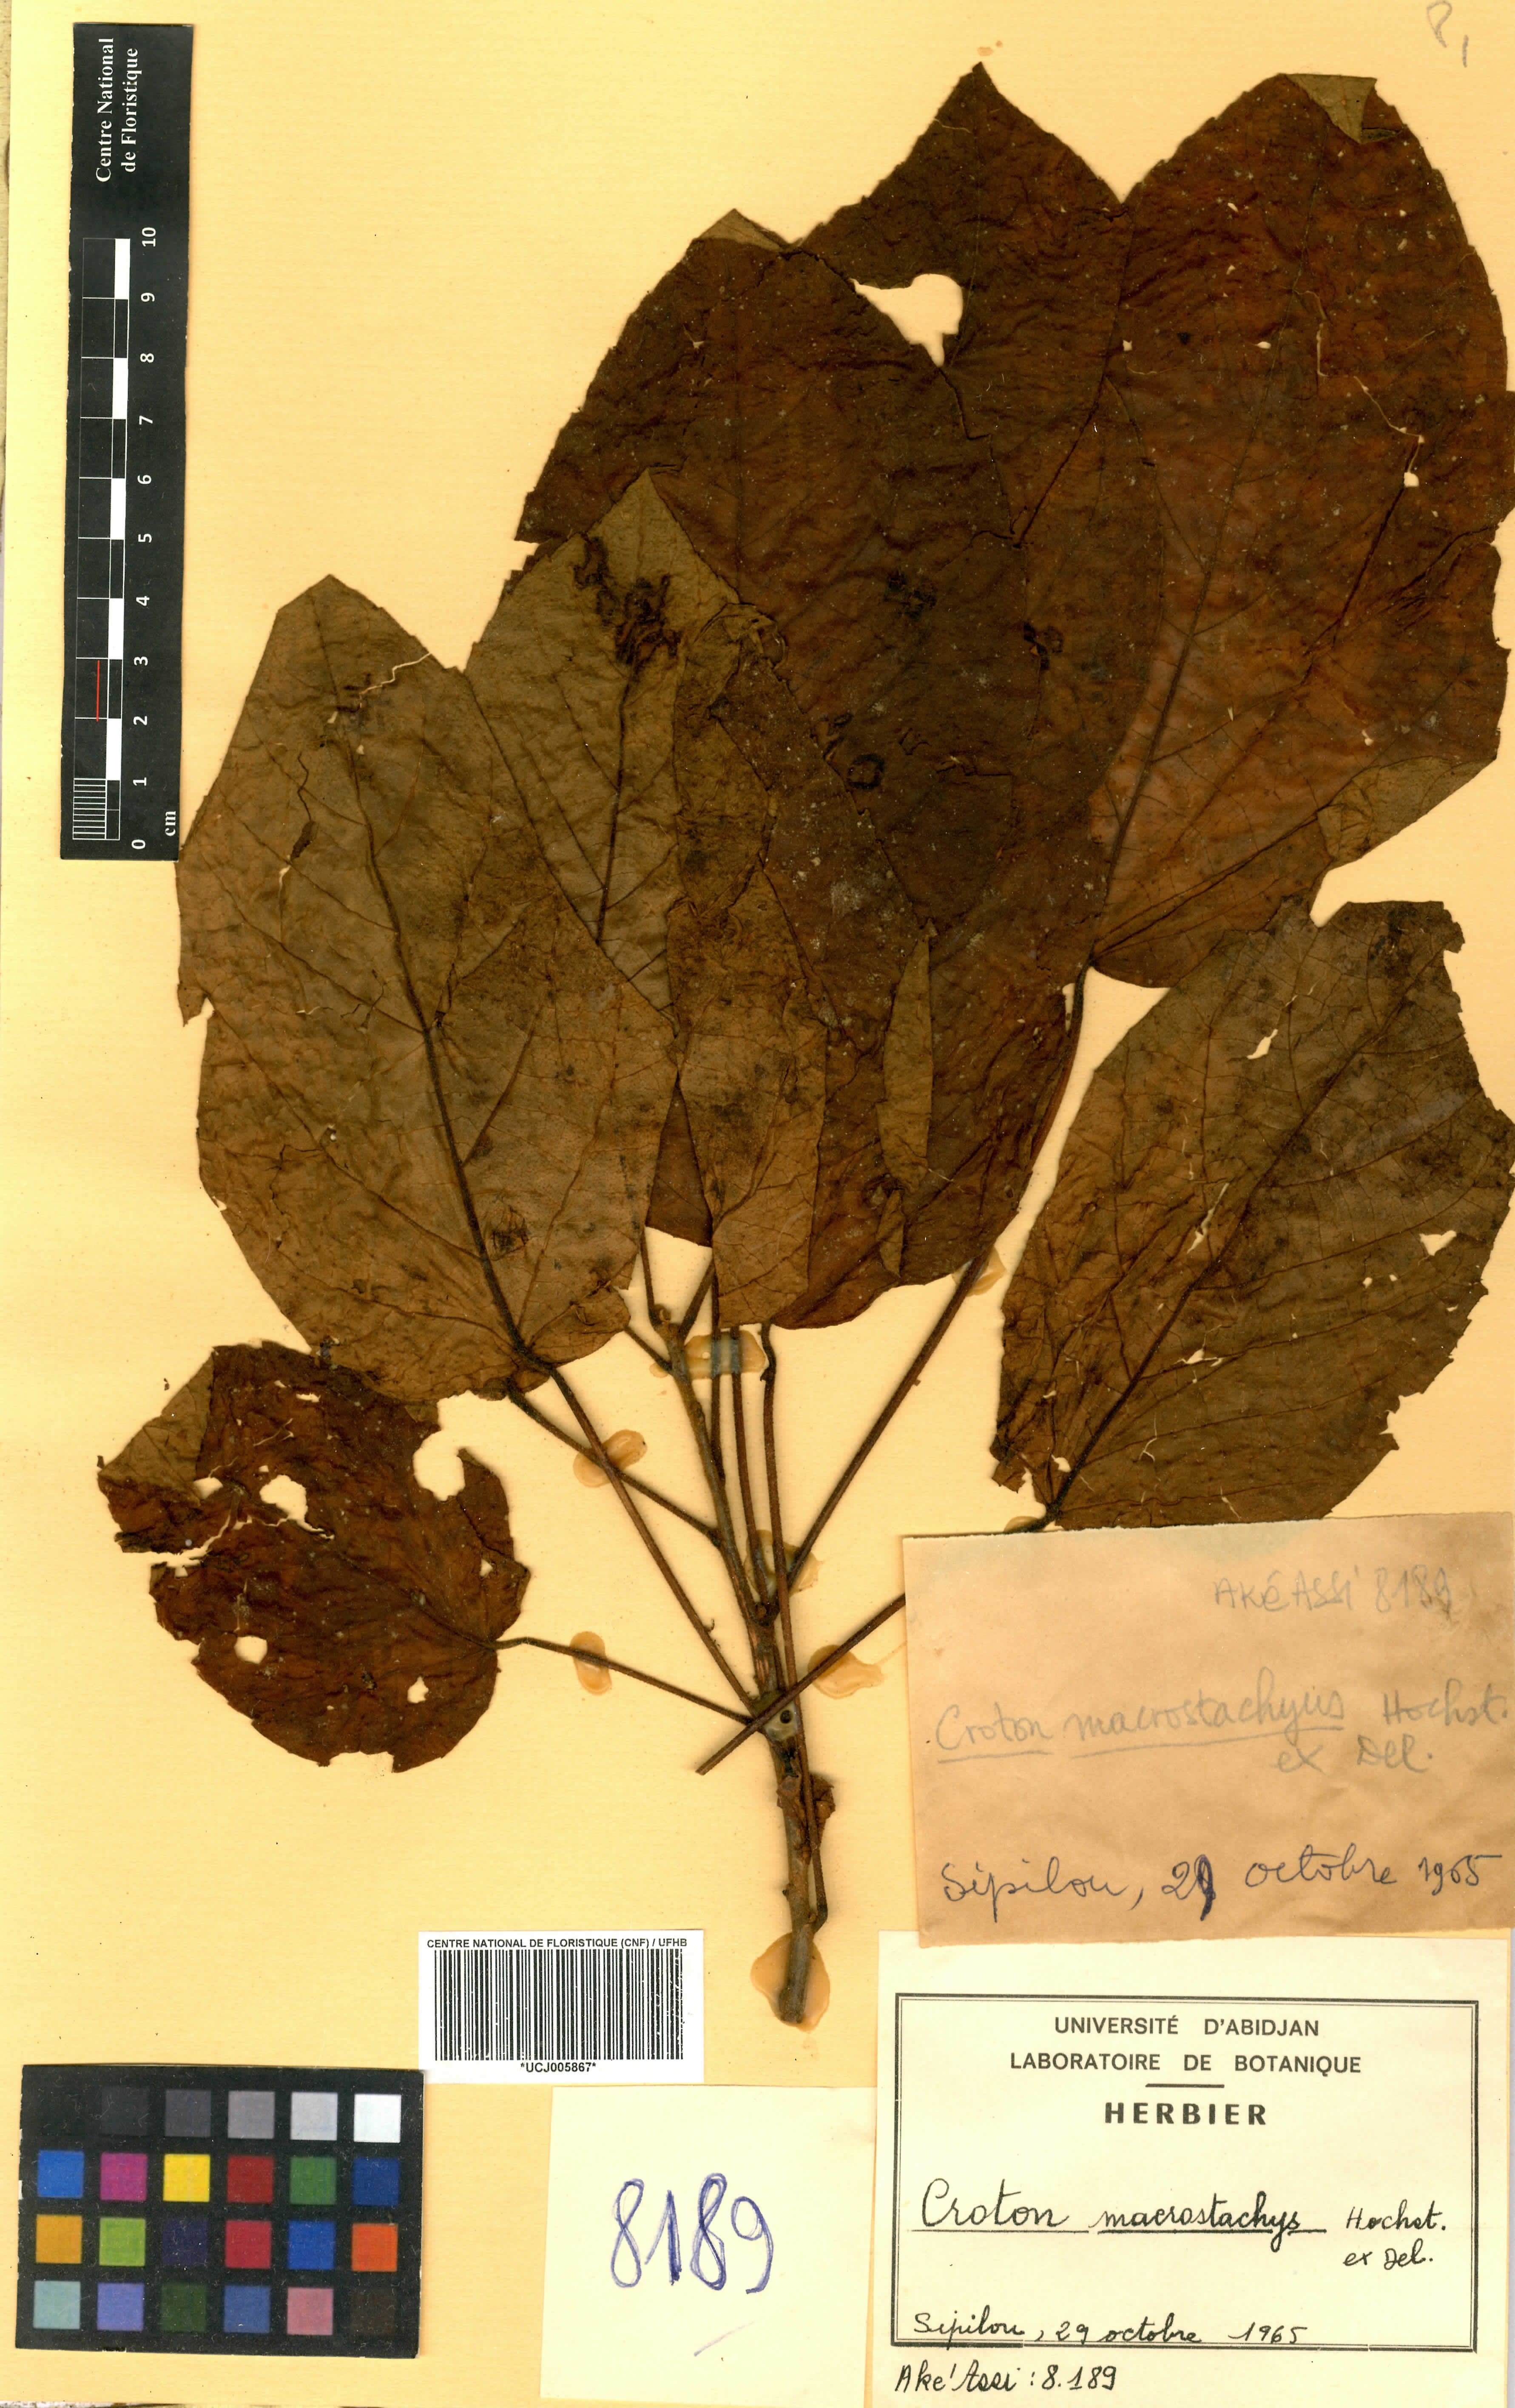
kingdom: Plantae
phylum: Tracheophyta
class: Magnoliopsida
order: Malpighiales
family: Euphorbiaceae
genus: Croton
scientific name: Croton macrostachyus
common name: Mutundu
